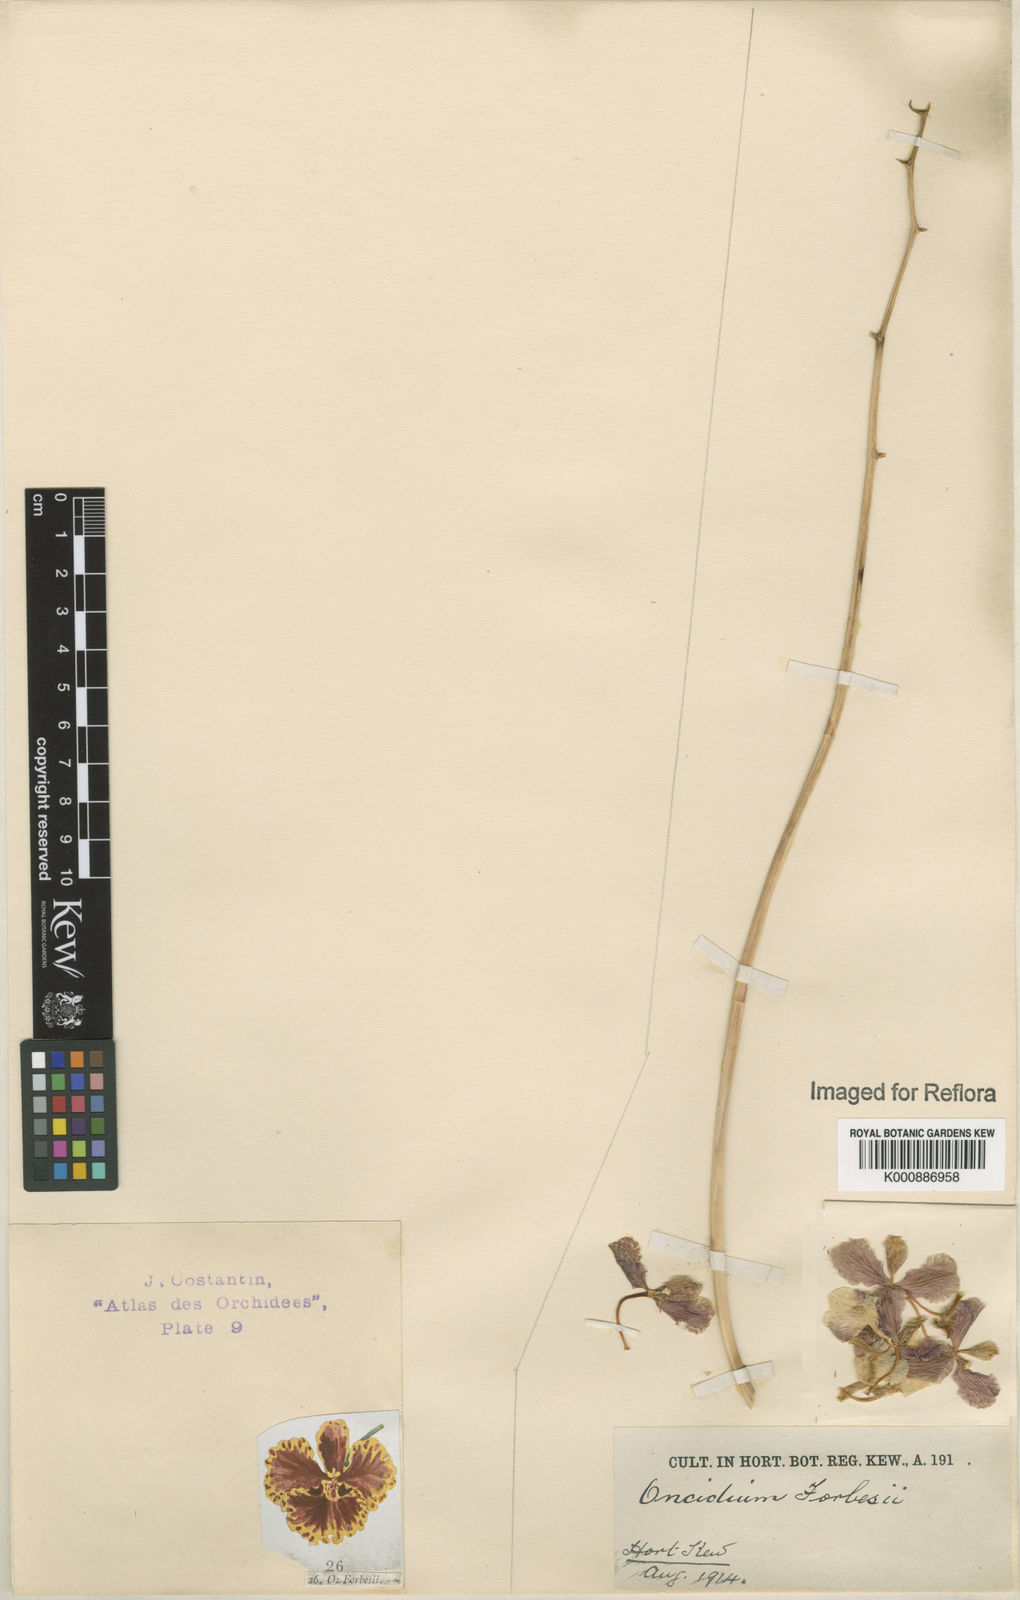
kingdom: Plantae
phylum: Tracheophyta
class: Liliopsida
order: Asparagales
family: Orchidaceae
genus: Gomesa
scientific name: Gomesa forbesii
